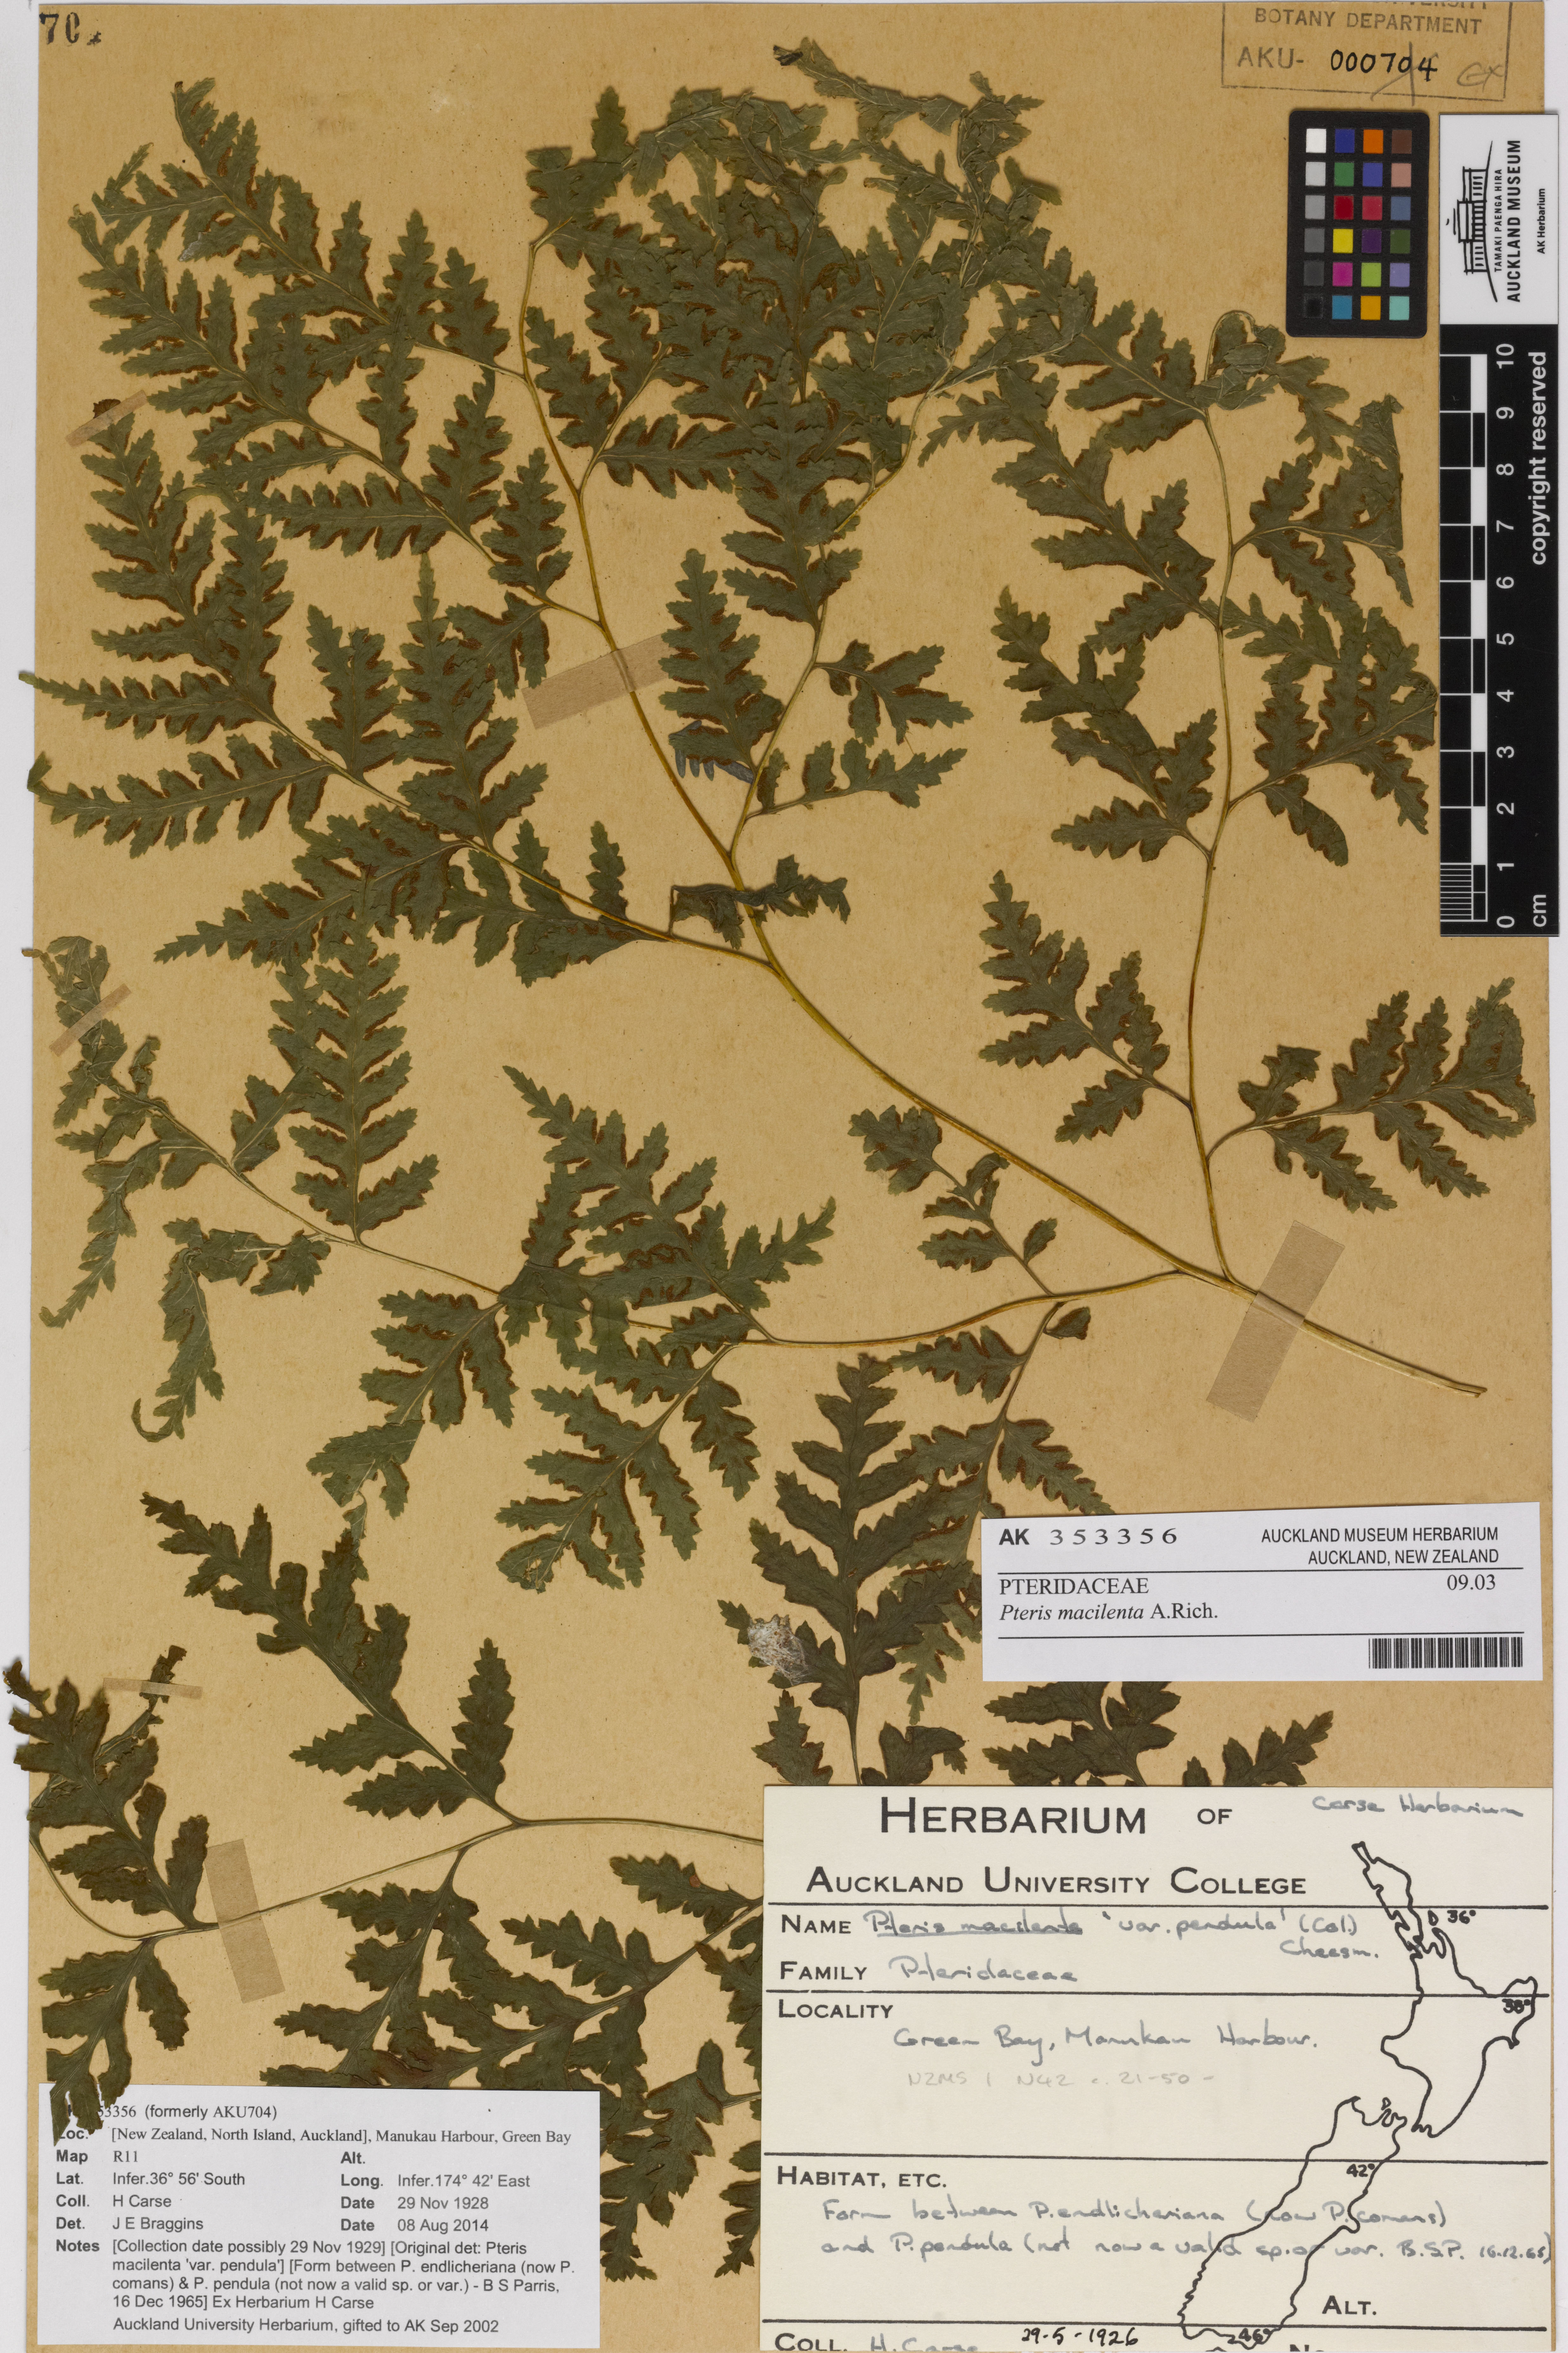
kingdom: Plantae
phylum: Tracheophyta
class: Polypodiopsida
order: Polypodiales
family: Pteridaceae
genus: Pteris
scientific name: Pteris macilenta
